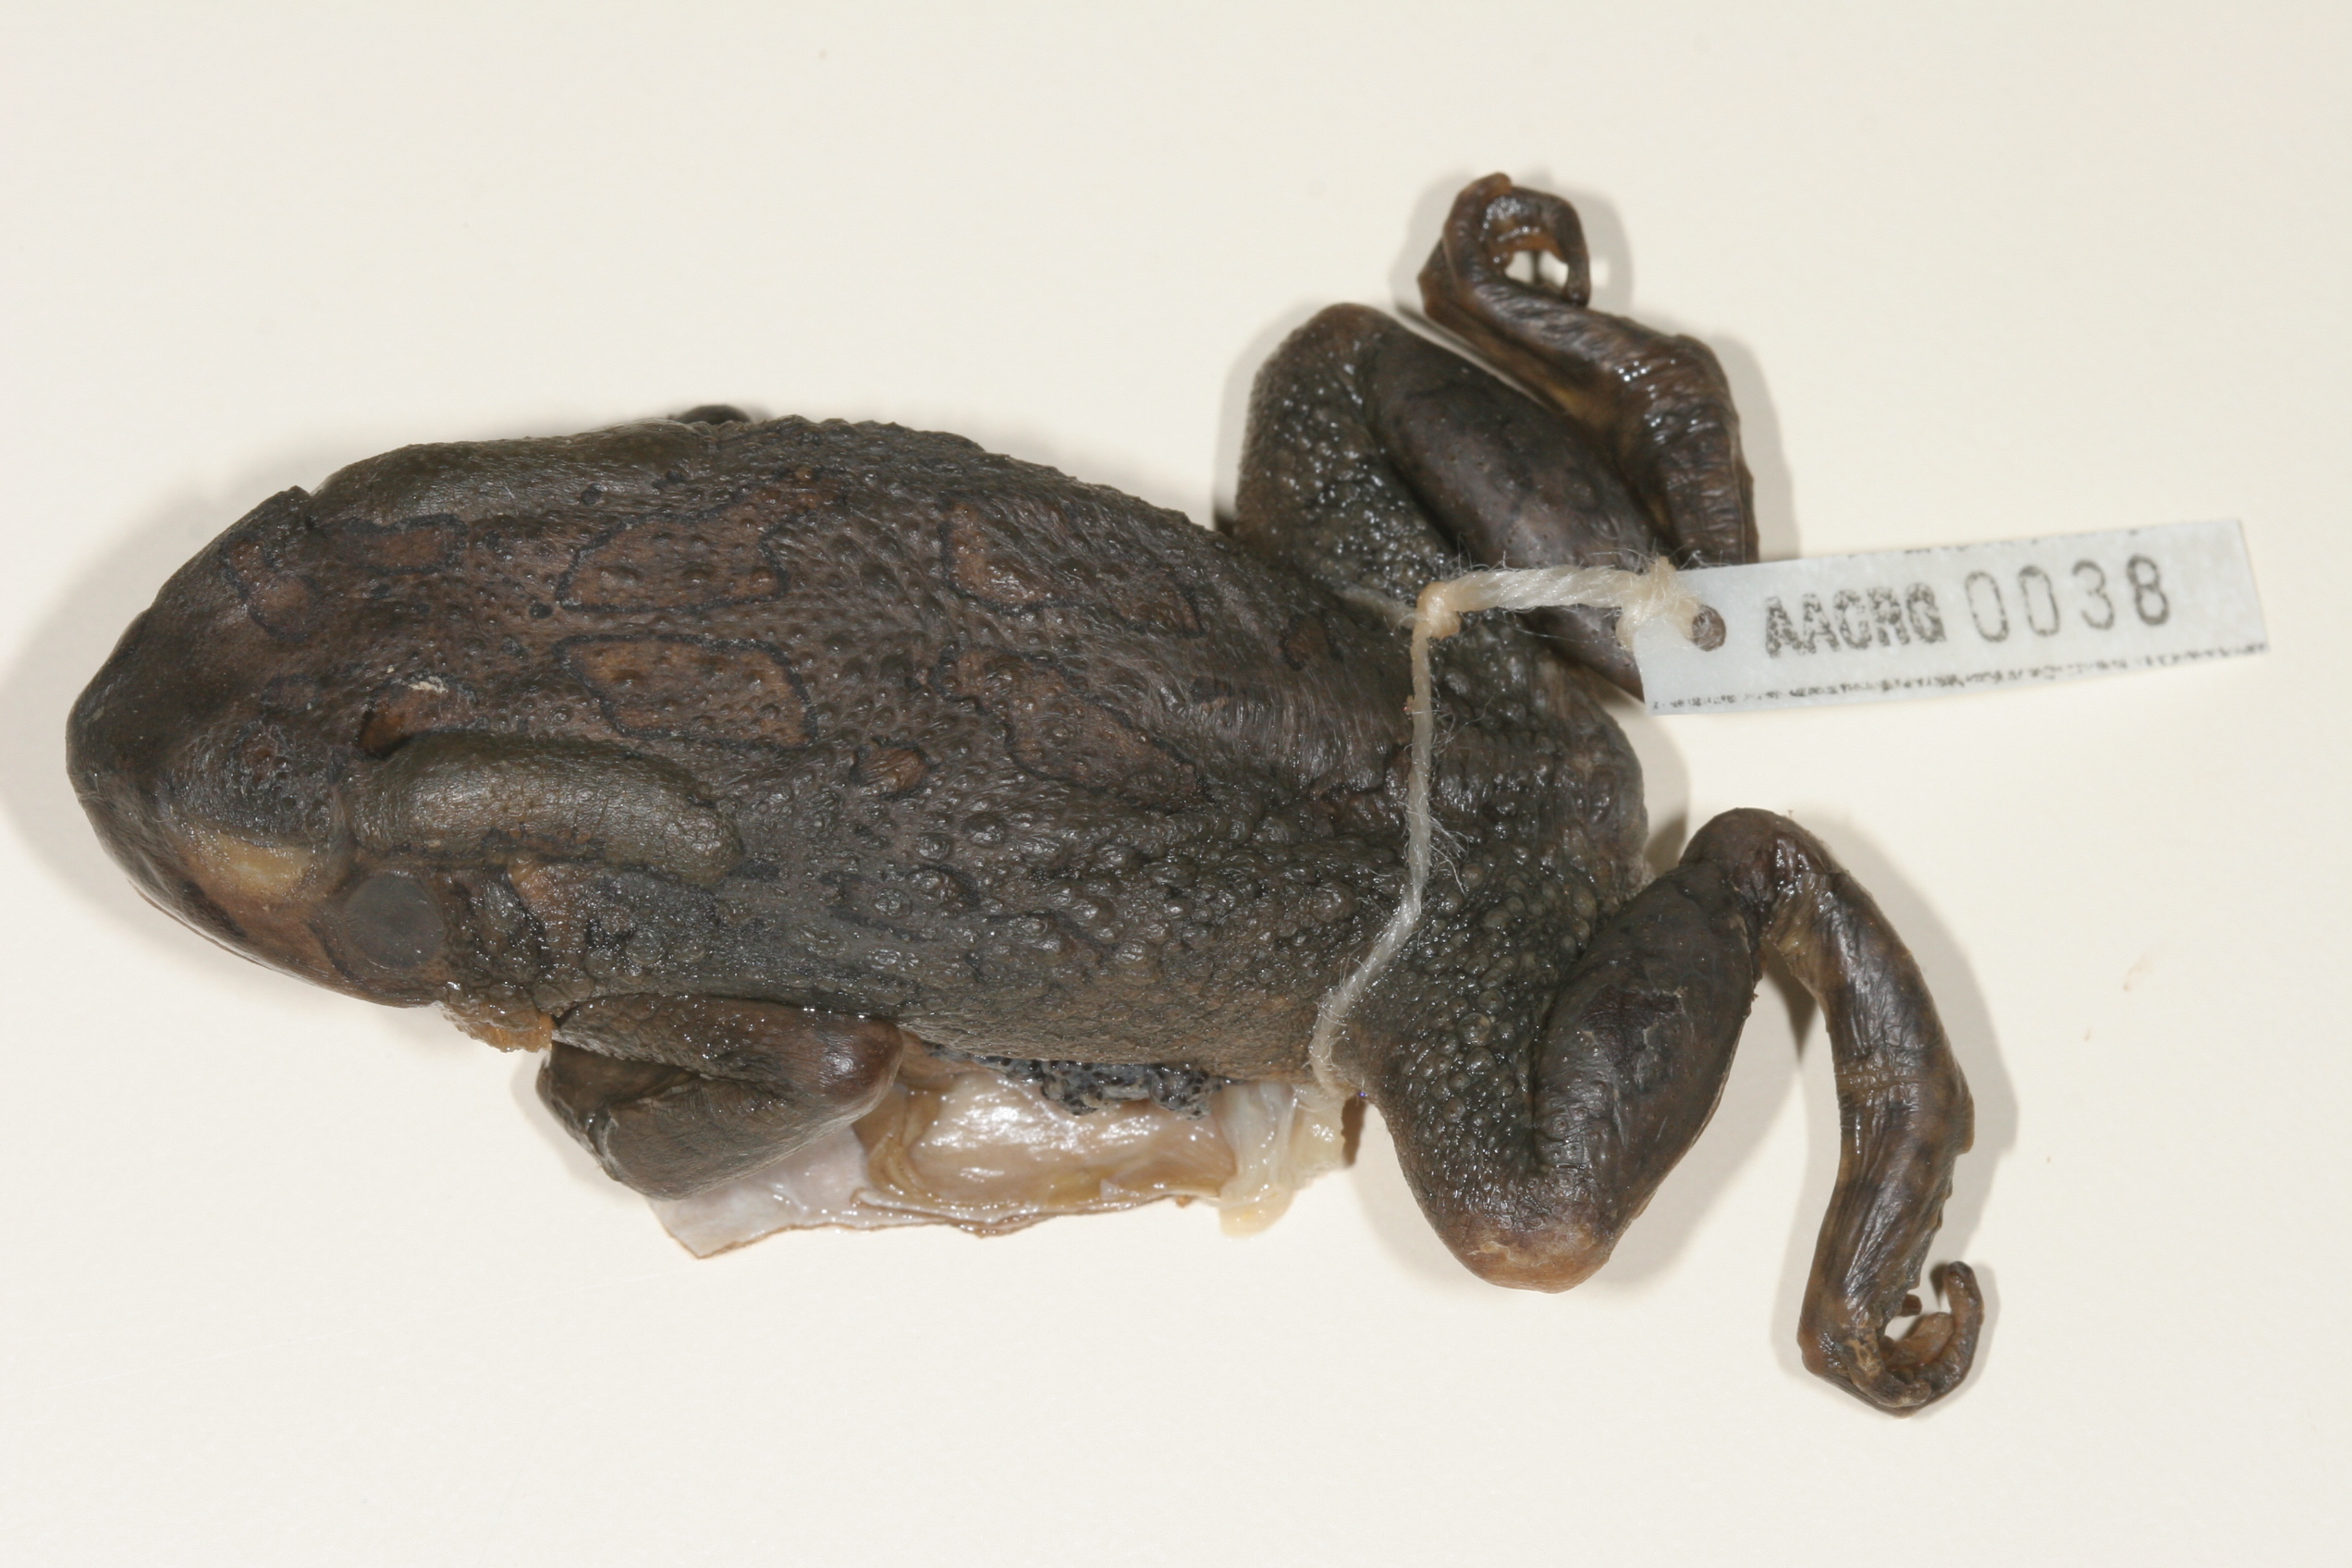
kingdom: Animalia
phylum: Chordata
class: Amphibia
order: Anura
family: Bufonidae
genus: Sclerophrys
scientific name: Sclerophrys garmani
